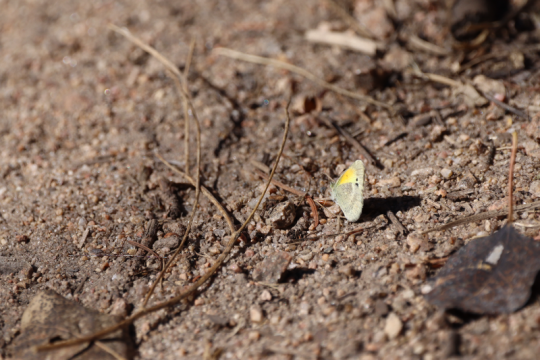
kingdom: Animalia
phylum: Arthropoda
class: Insecta
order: Lepidoptera
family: Pieridae
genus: Nathalis
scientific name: Nathalis iole
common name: Dainty Sulphur
